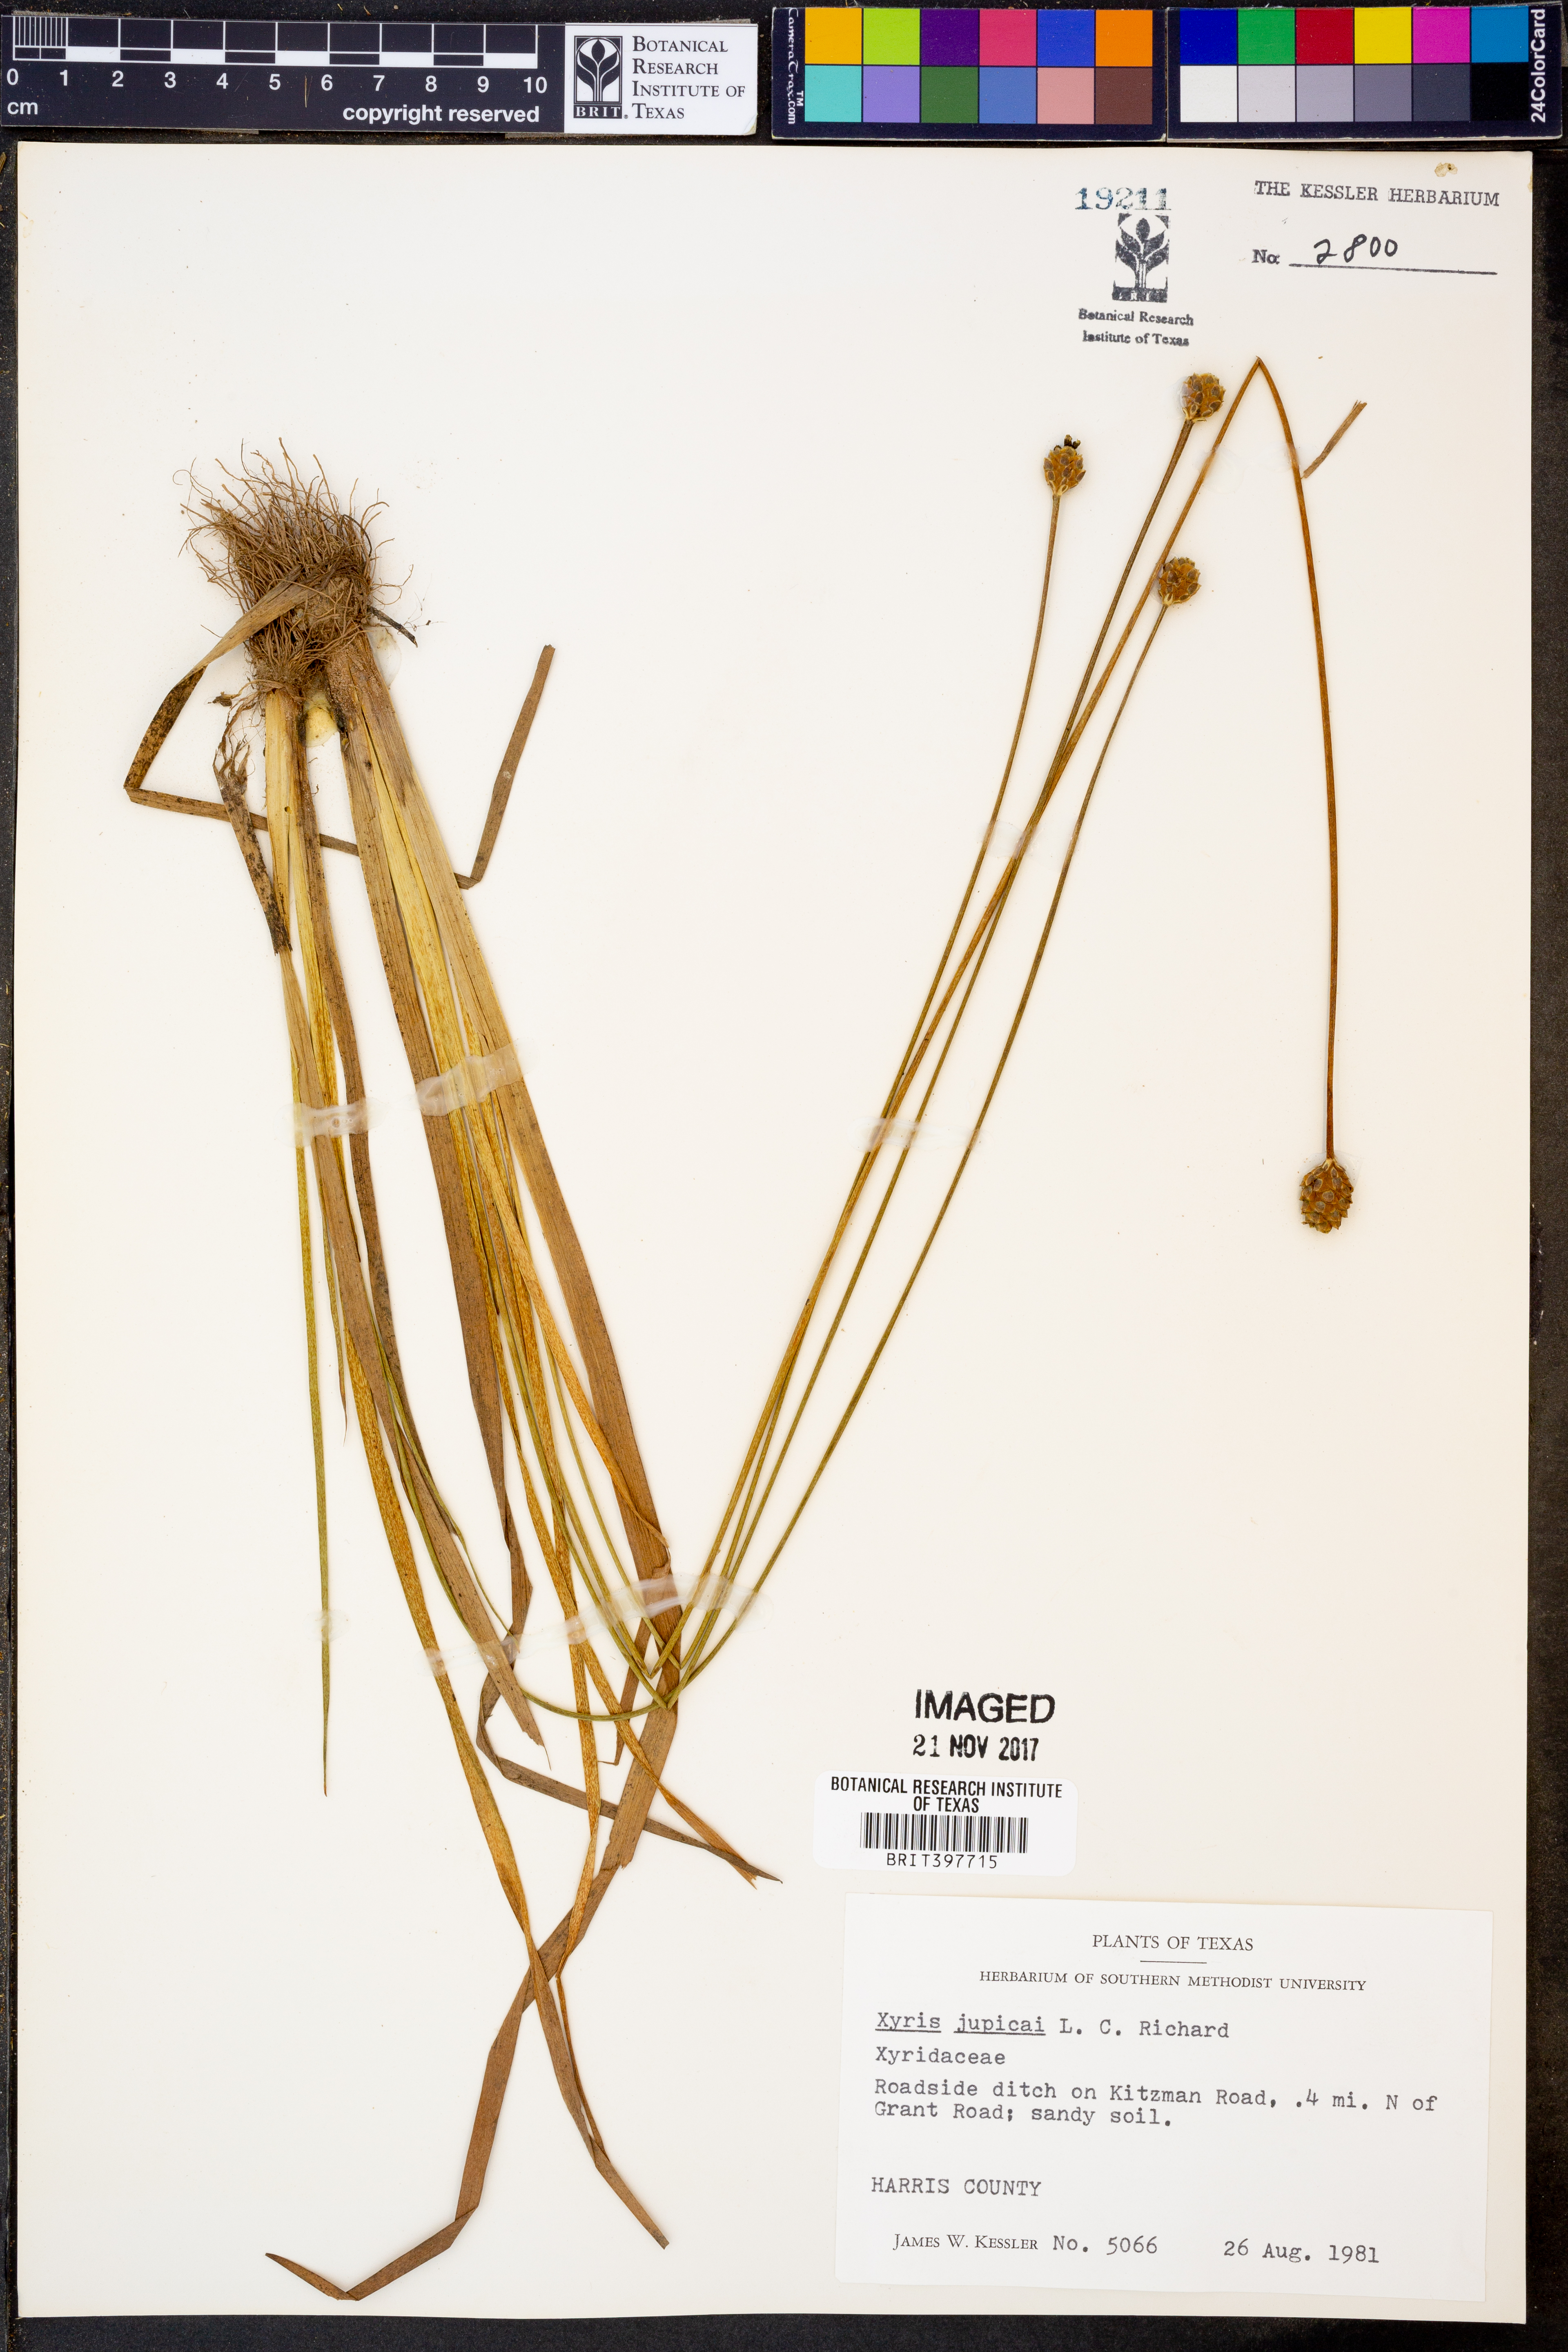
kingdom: Plantae
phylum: Tracheophyta
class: Liliopsida
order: Poales
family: Xyridaceae
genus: Xyris
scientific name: Xyris jupicai
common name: Richard's yelloweyed grass
